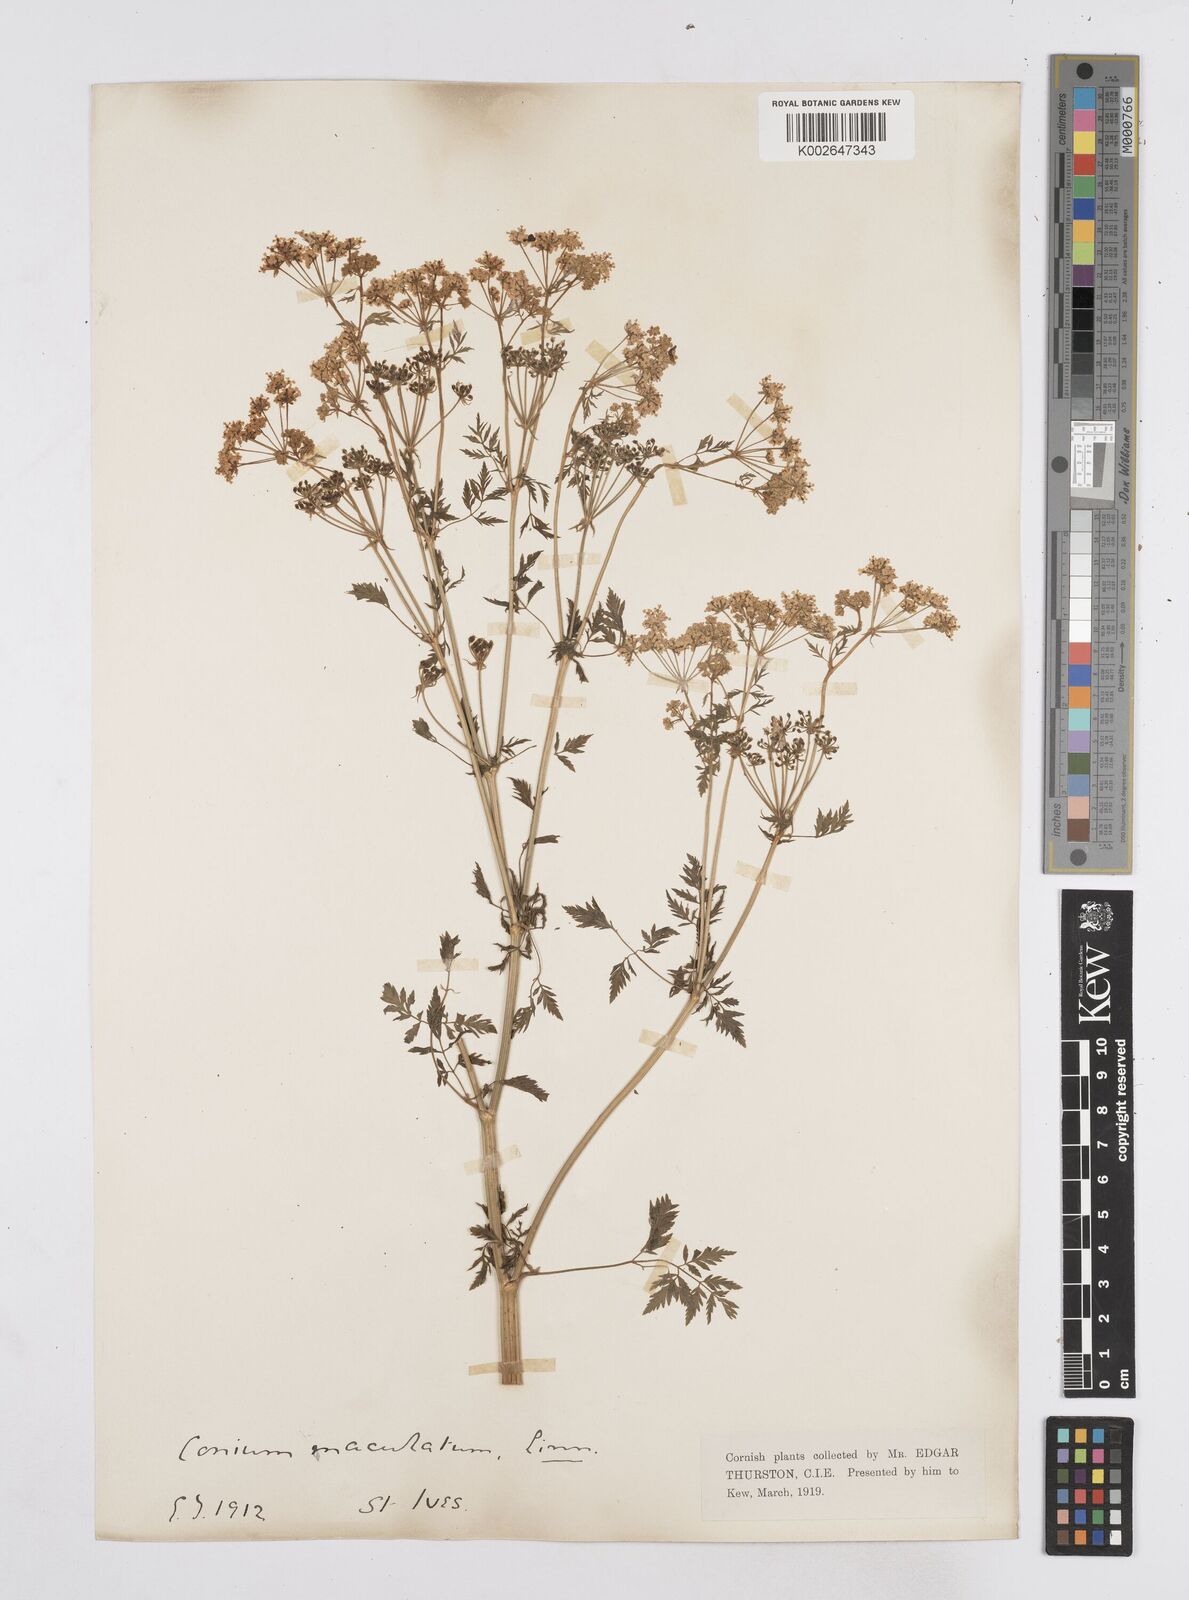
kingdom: Plantae
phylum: Tracheophyta
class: Magnoliopsida
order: Apiales
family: Apiaceae
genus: Conium
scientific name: Conium maculatum
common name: Hemlock
